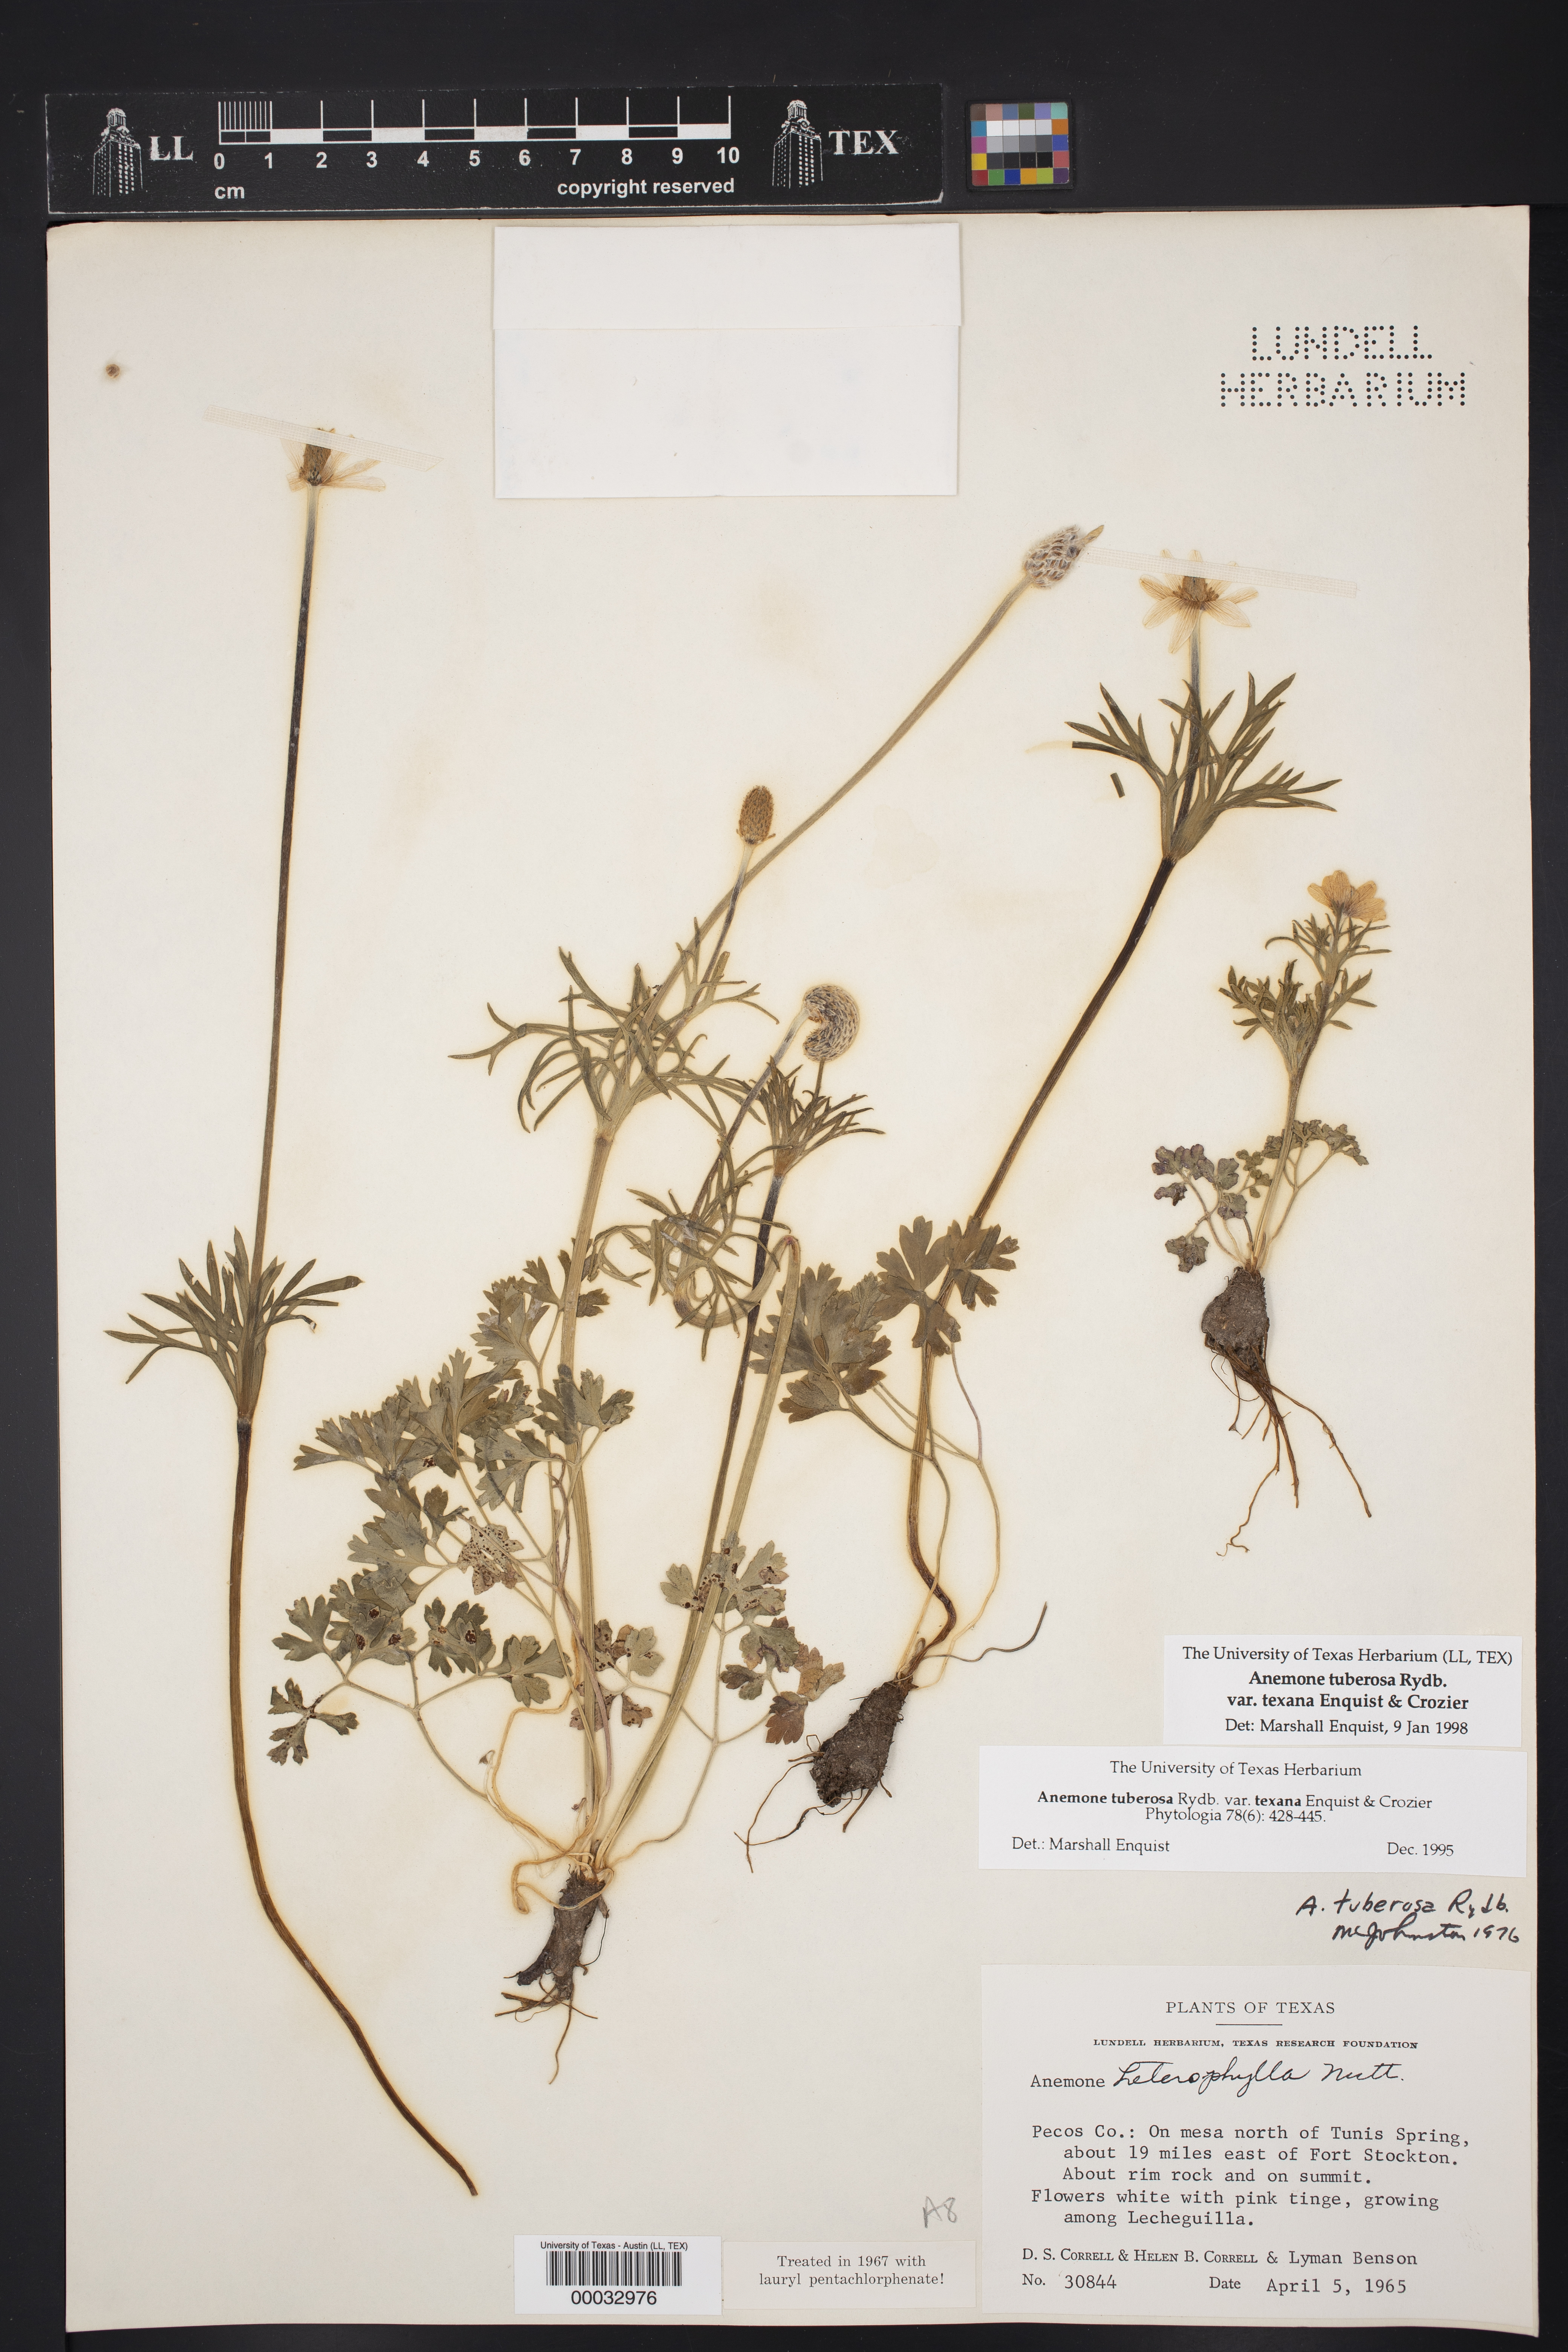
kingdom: Plantae
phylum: Tracheophyta
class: Magnoliopsida
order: Ranunculales
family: Ranunculaceae
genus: Anemone
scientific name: Anemone tuberosa
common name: Desert anemone
